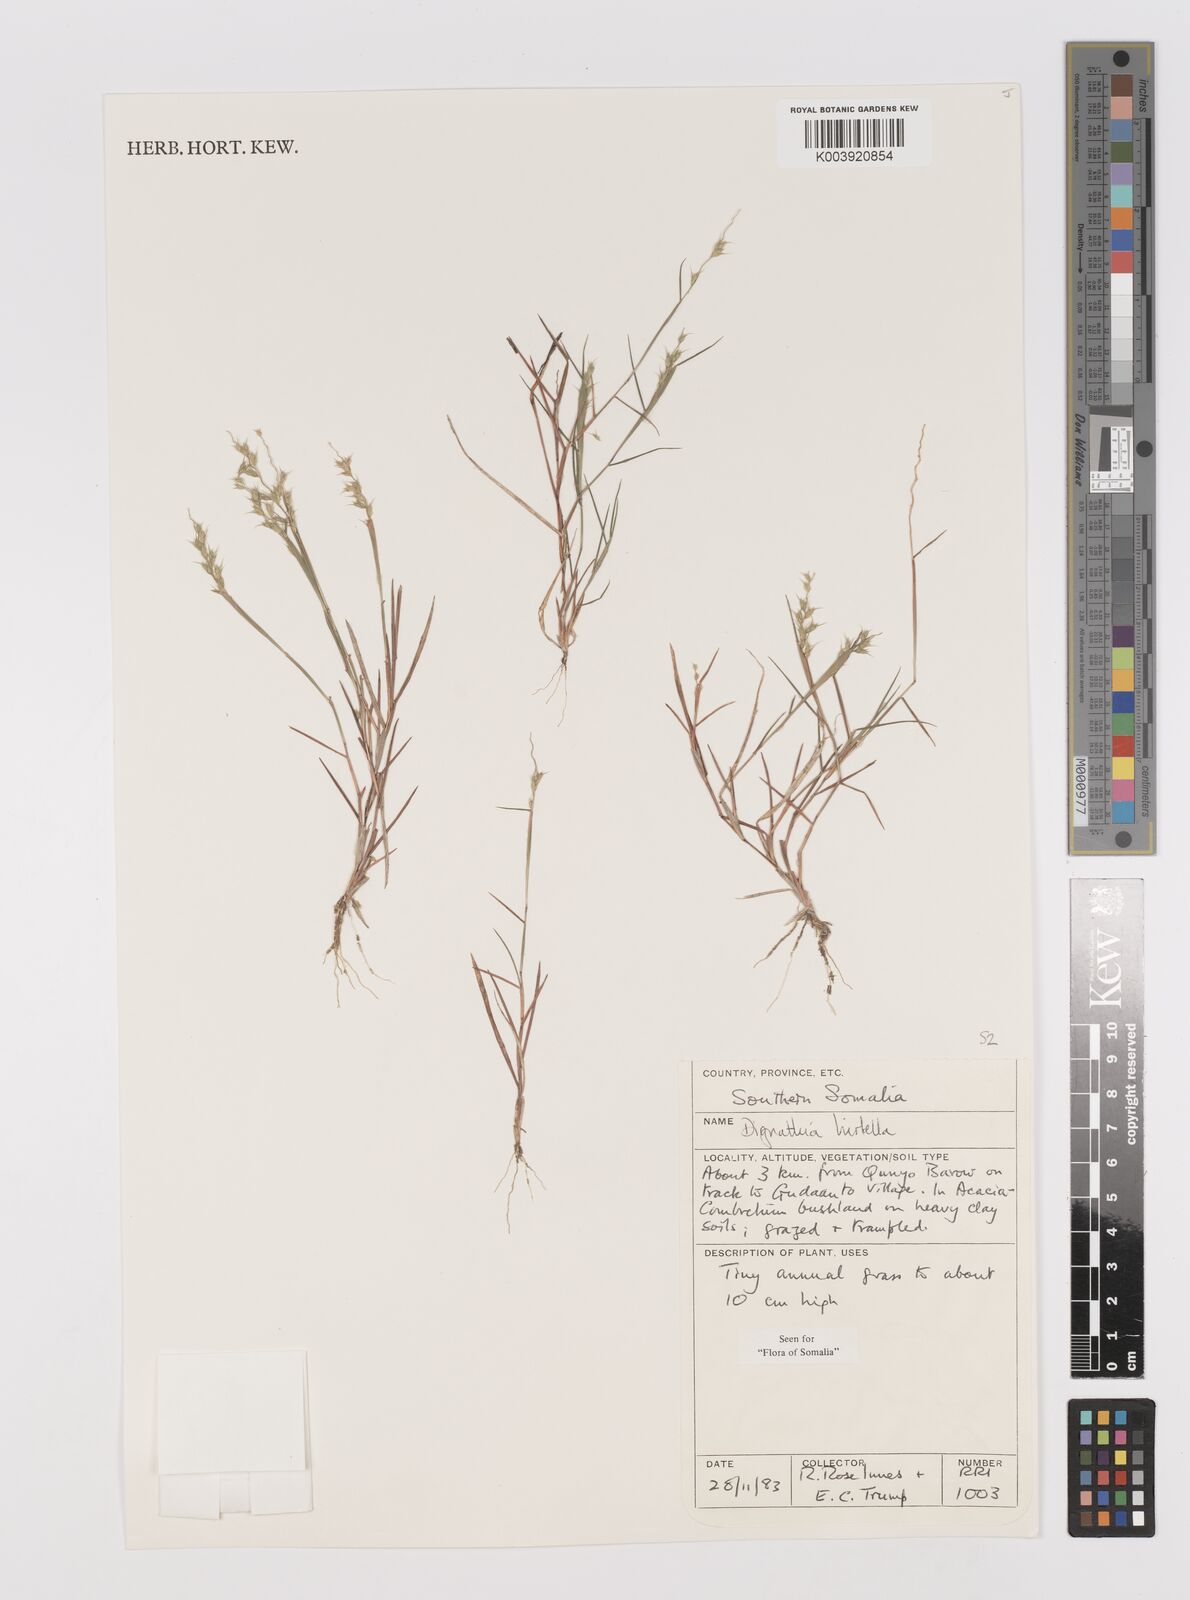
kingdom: Plantae
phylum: Tracheophyta
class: Liliopsida
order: Poales
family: Poaceae
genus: Dignathia
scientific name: Dignathia hirtella
